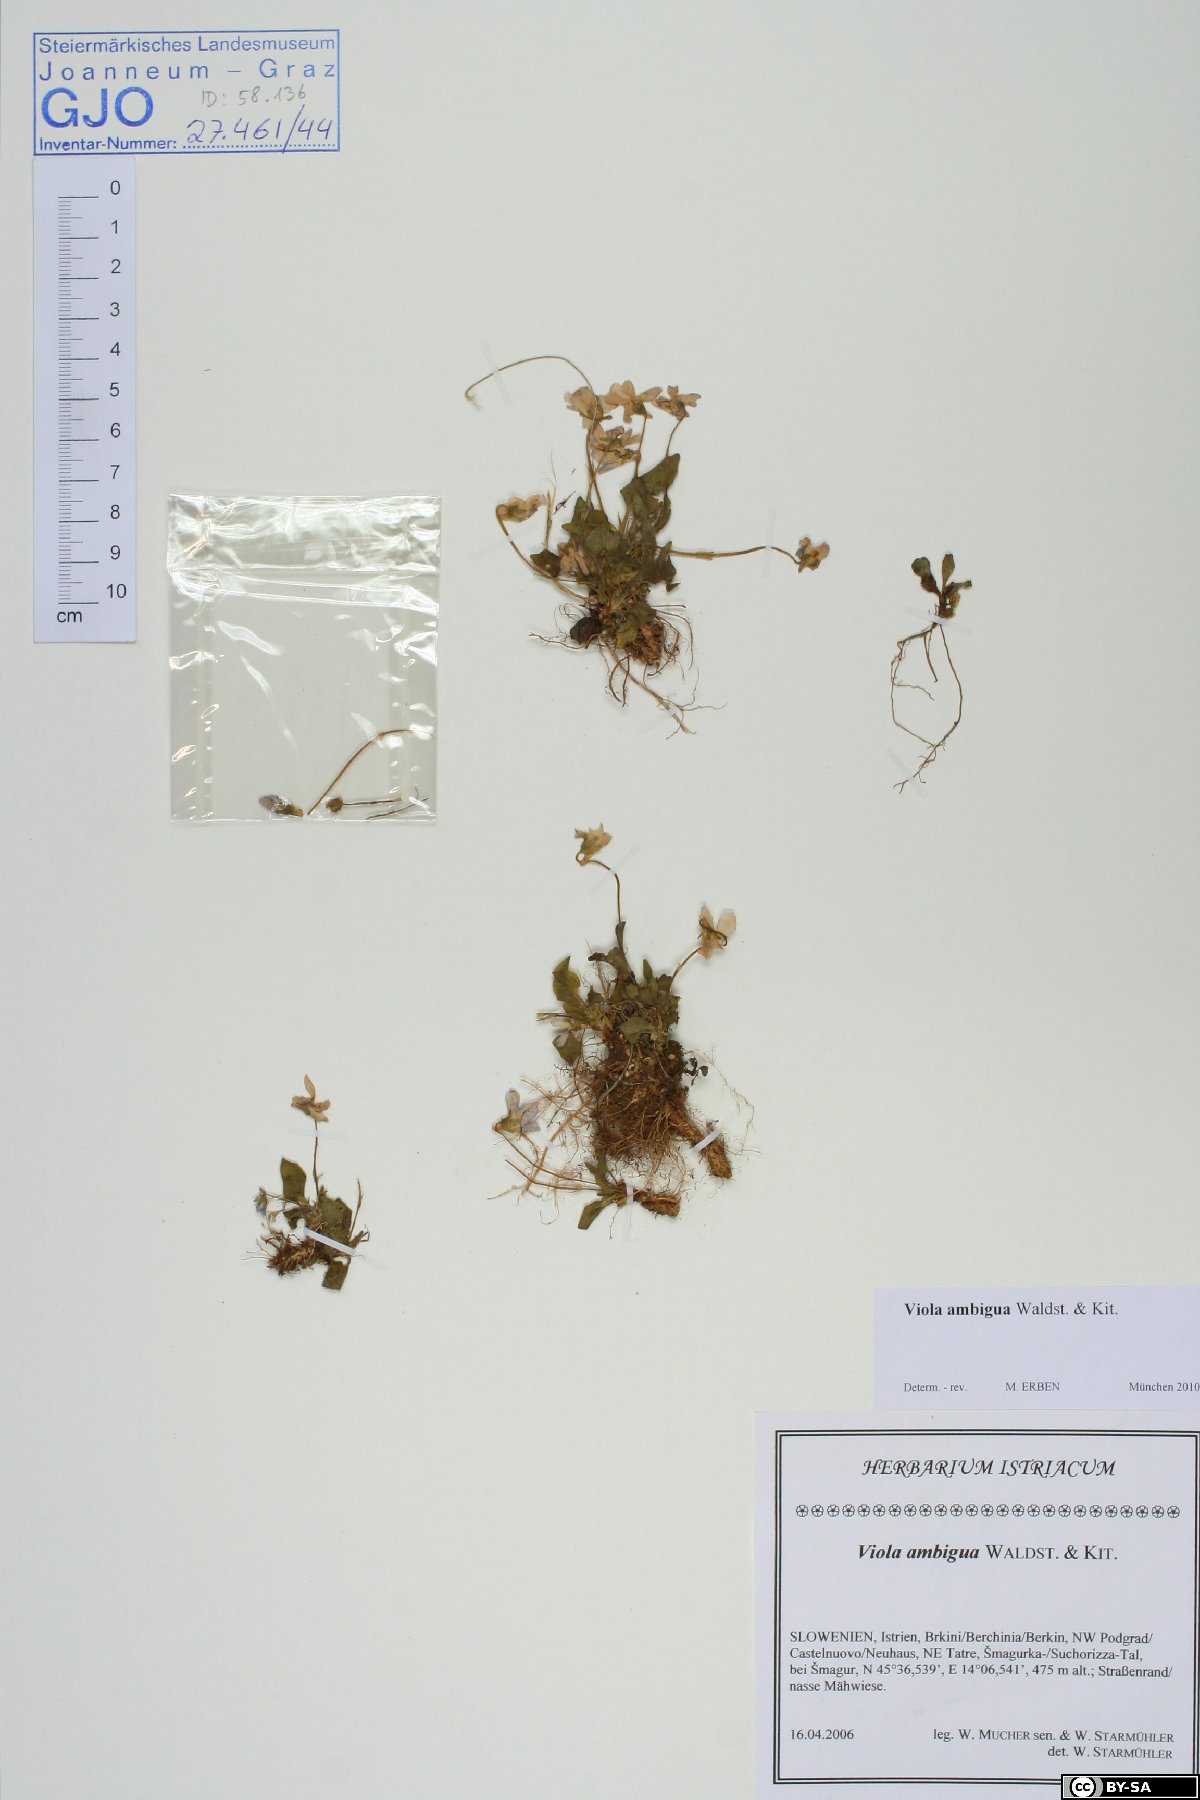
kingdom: Plantae
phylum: Tracheophyta
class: Magnoliopsida
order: Malpighiales
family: Violaceae
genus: Viola
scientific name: Viola ambigua
